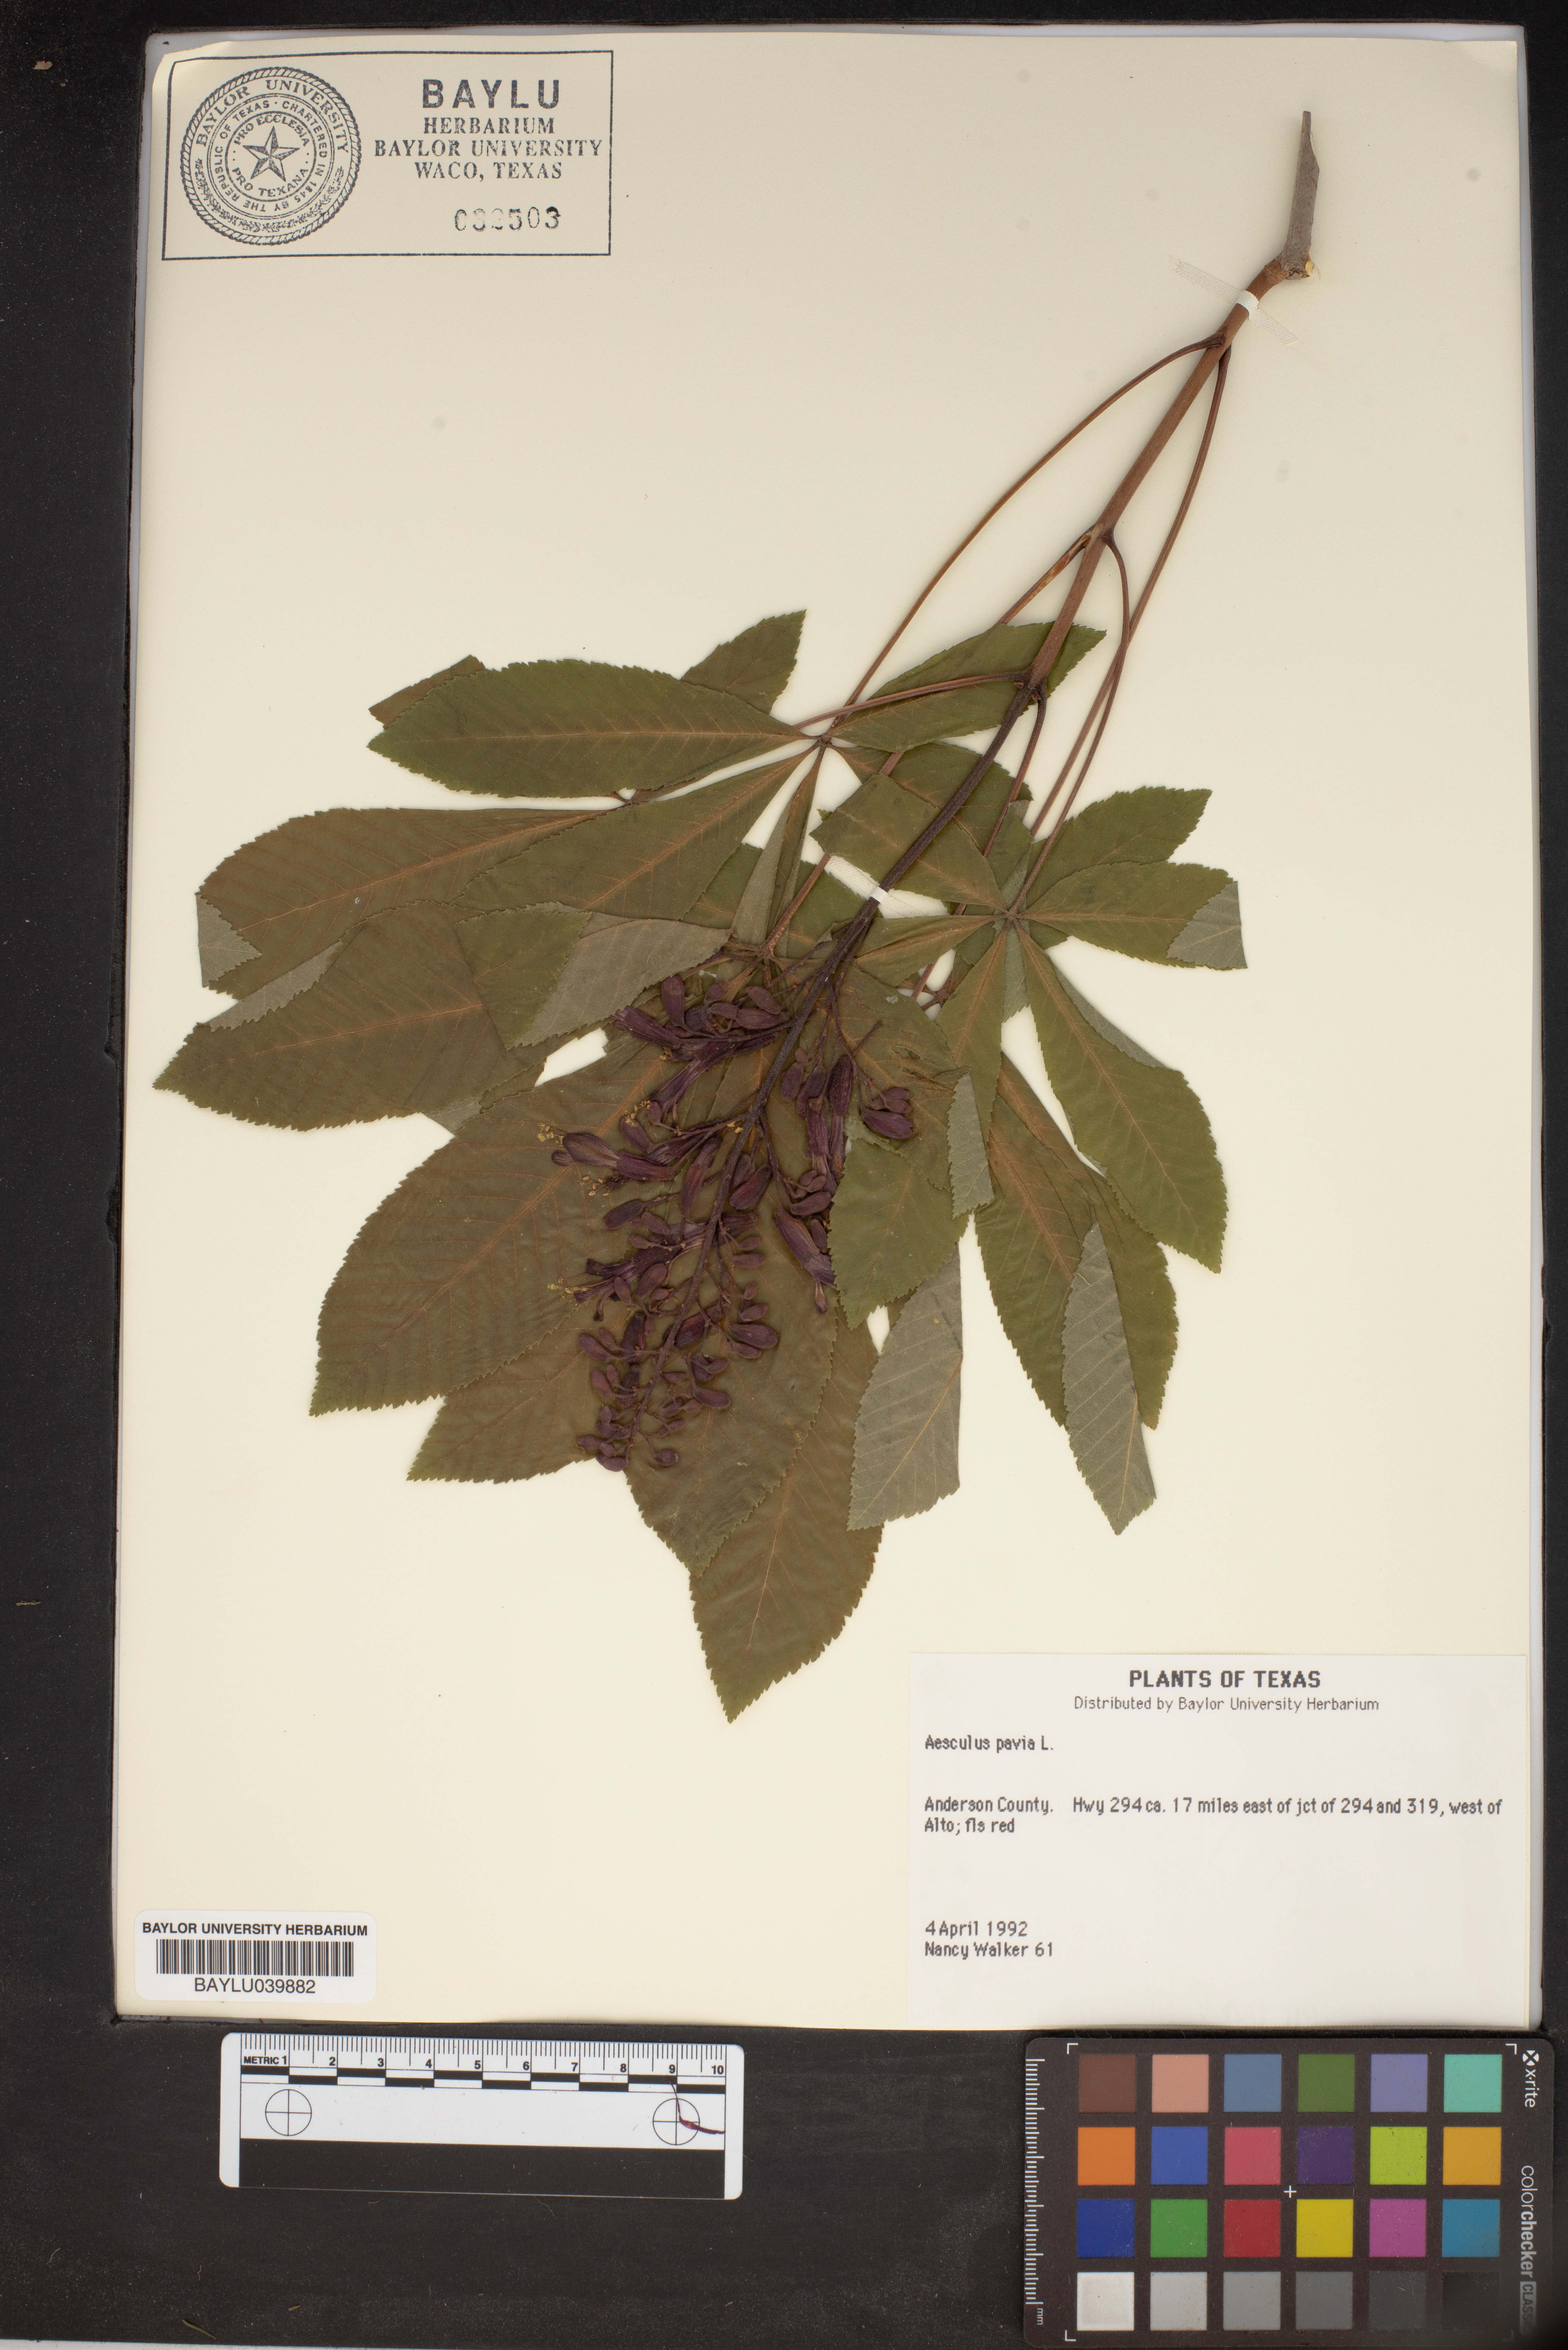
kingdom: Plantae
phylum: Tracheophyta
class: Magnoliopsida
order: Sapindales
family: Sapindaceae
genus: Aesculus
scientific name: Aesculus pavia
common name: Red buckeye
